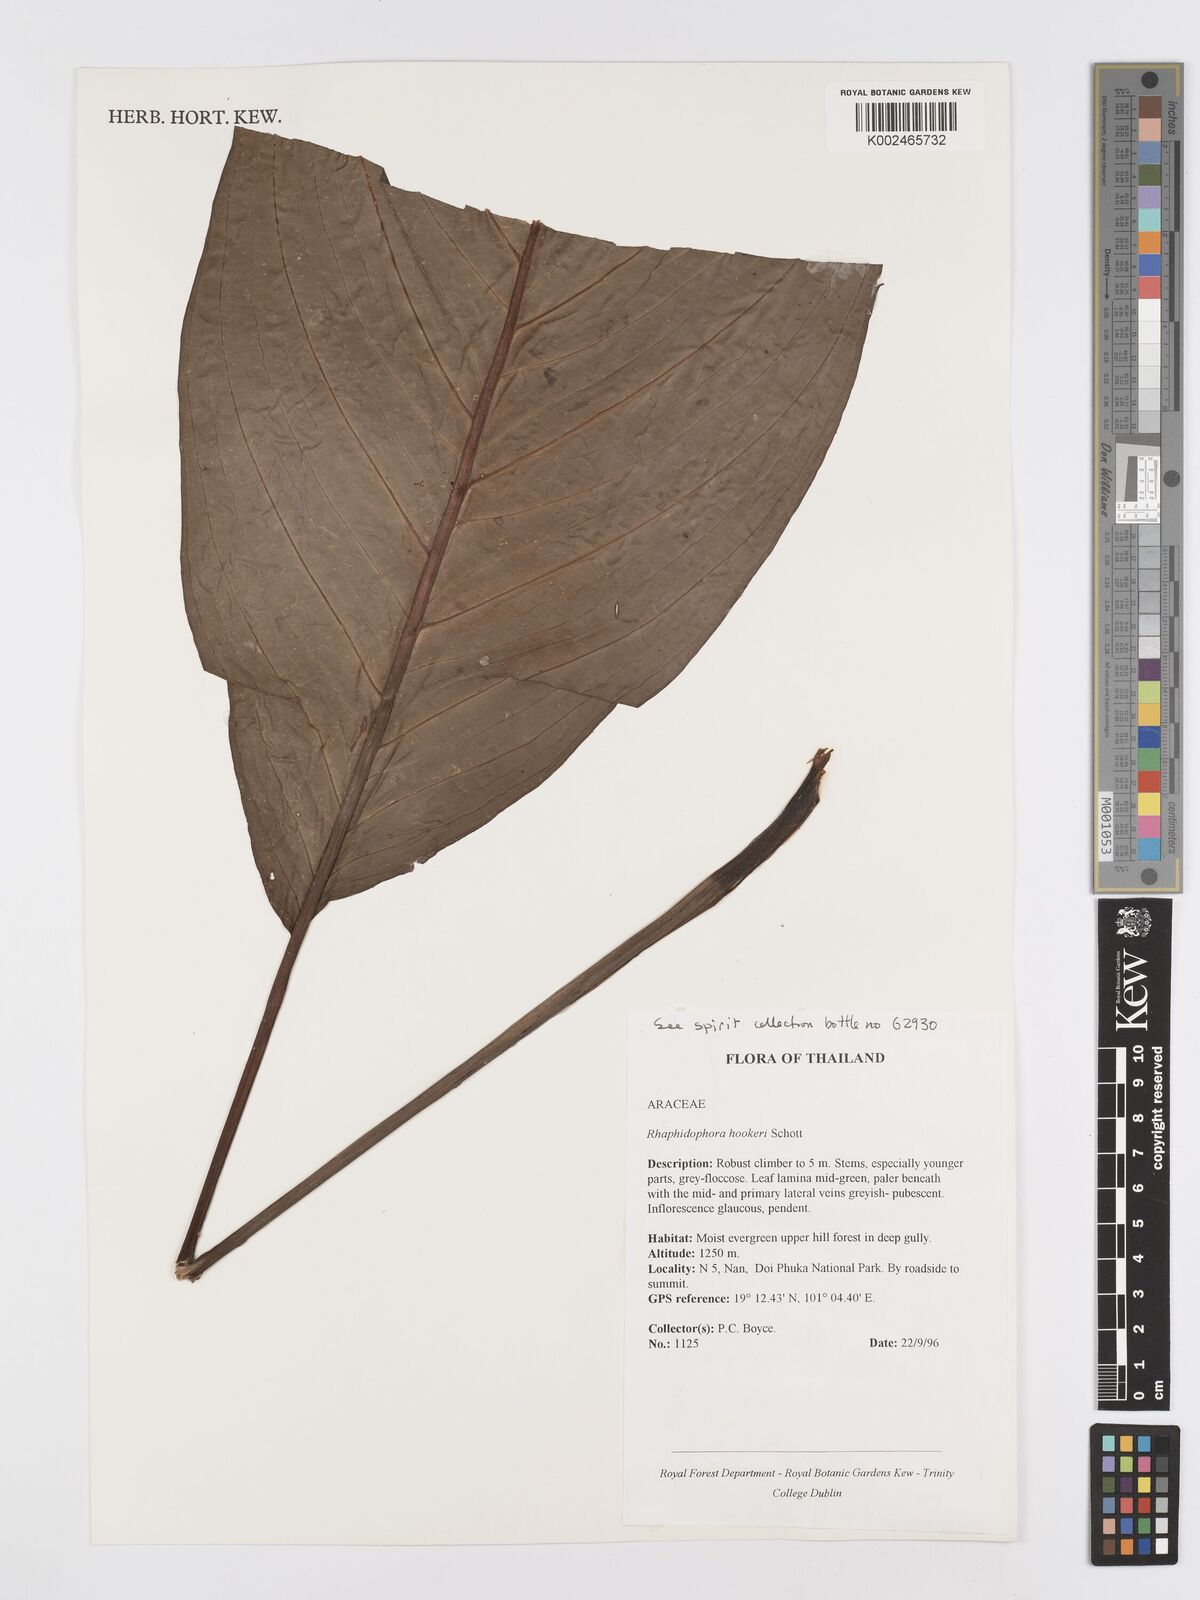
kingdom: Plantae
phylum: Tracheophyta
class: Liliopsida
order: Alismatales
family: Araceae
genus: Rhaphidophora
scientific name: Rhaphidophora hookeri
